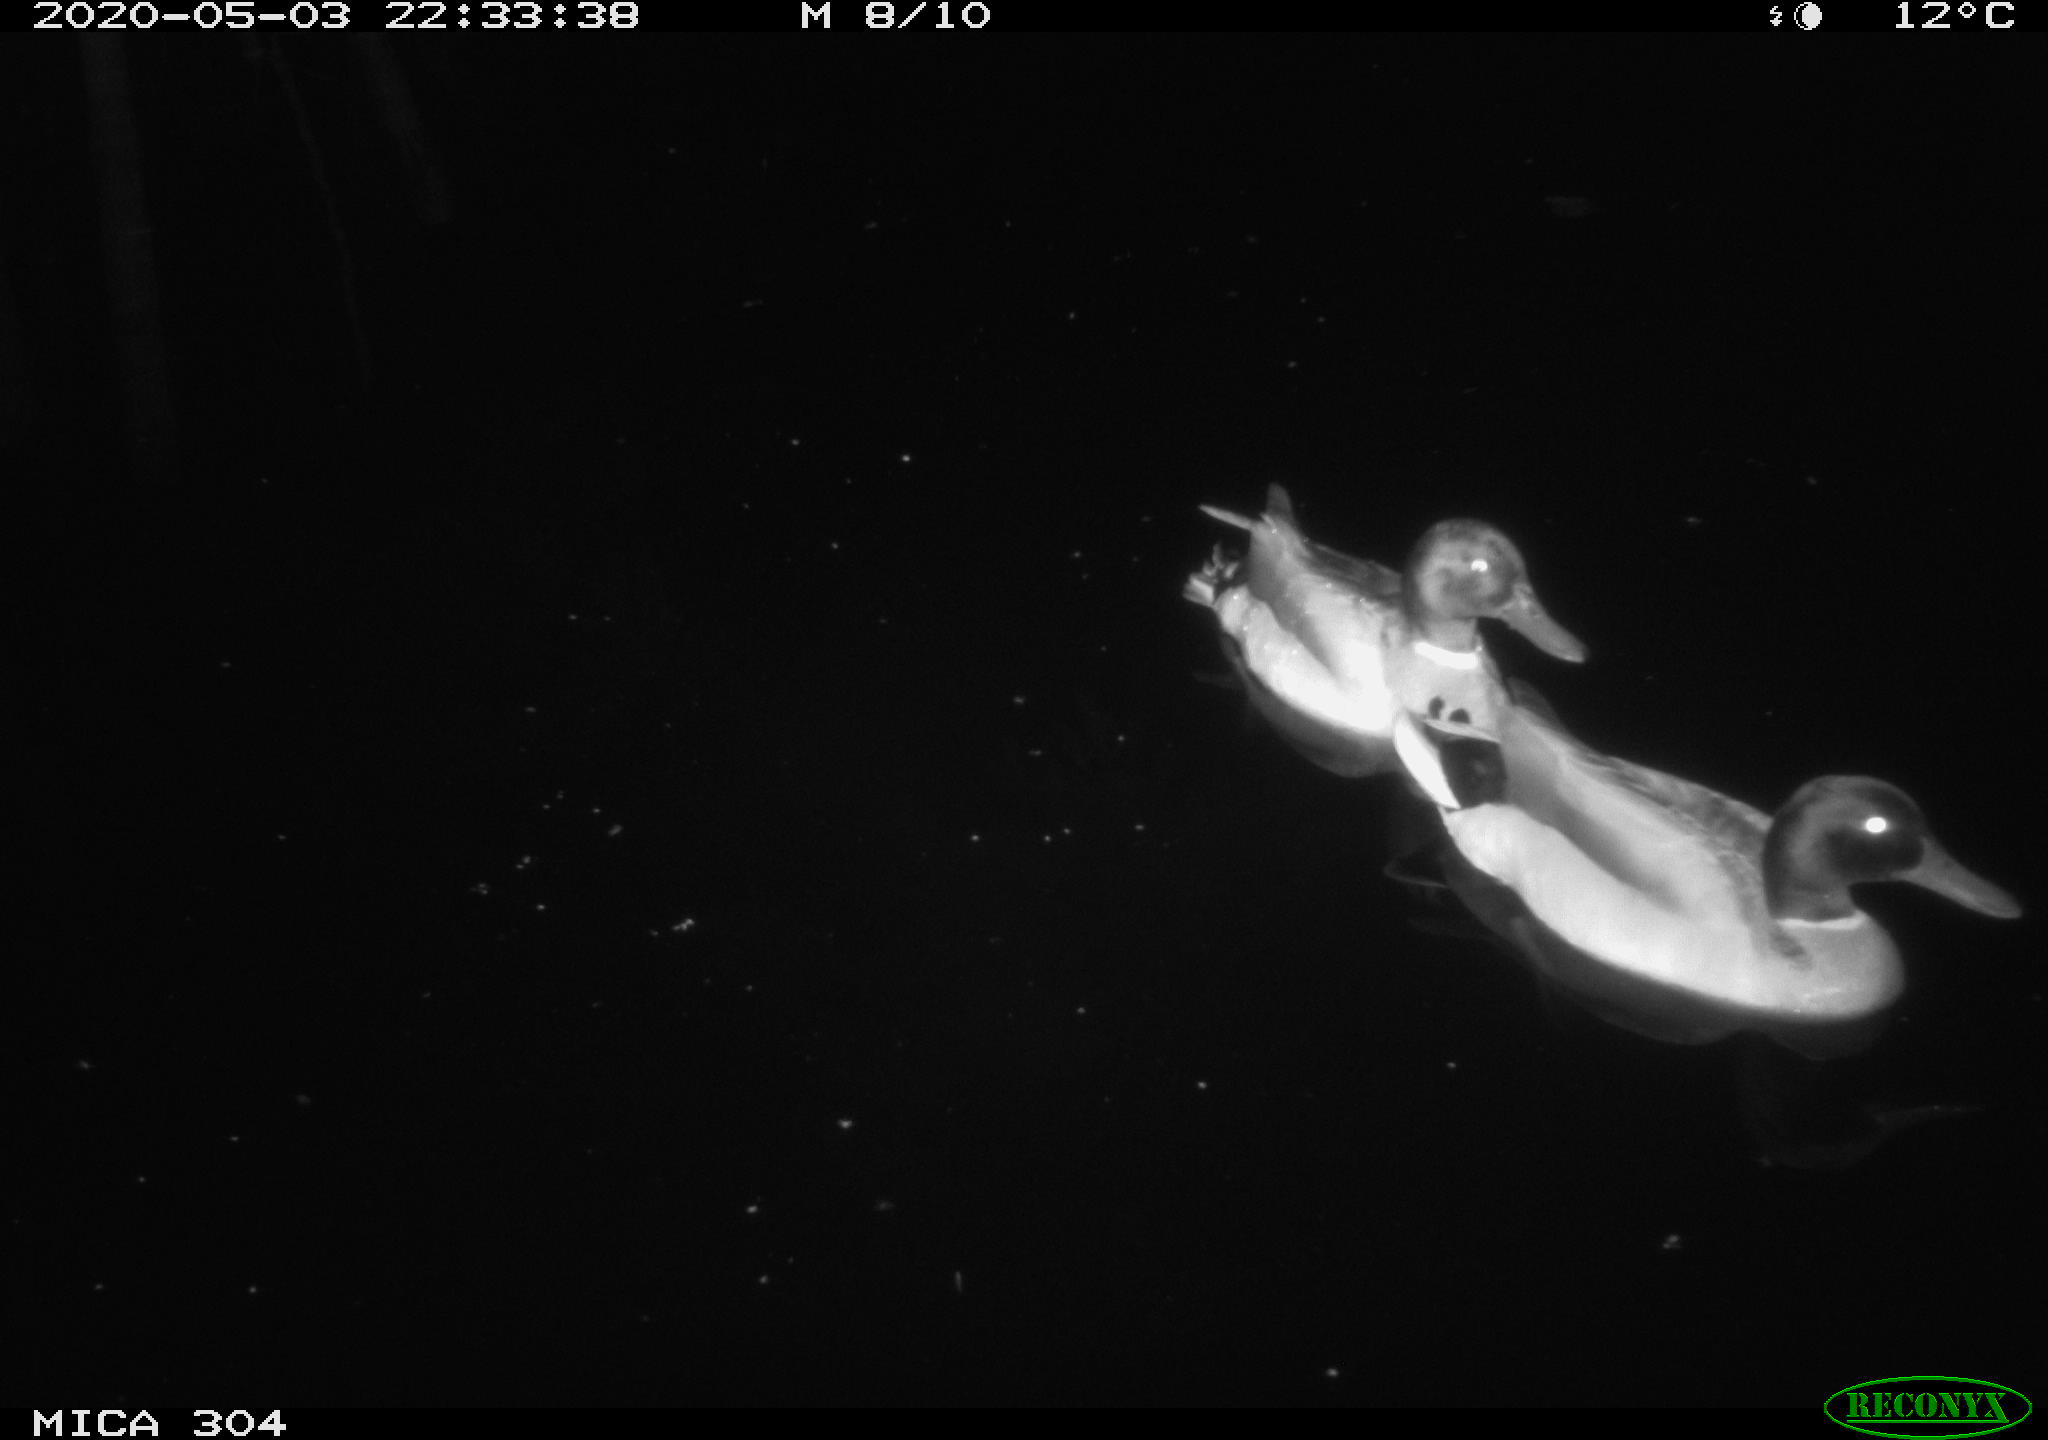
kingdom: Animalia
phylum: Chordata
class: Aves
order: Anseriformes
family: Anatidae
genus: Anas
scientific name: Anas platyrhynchos
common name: Mallard
